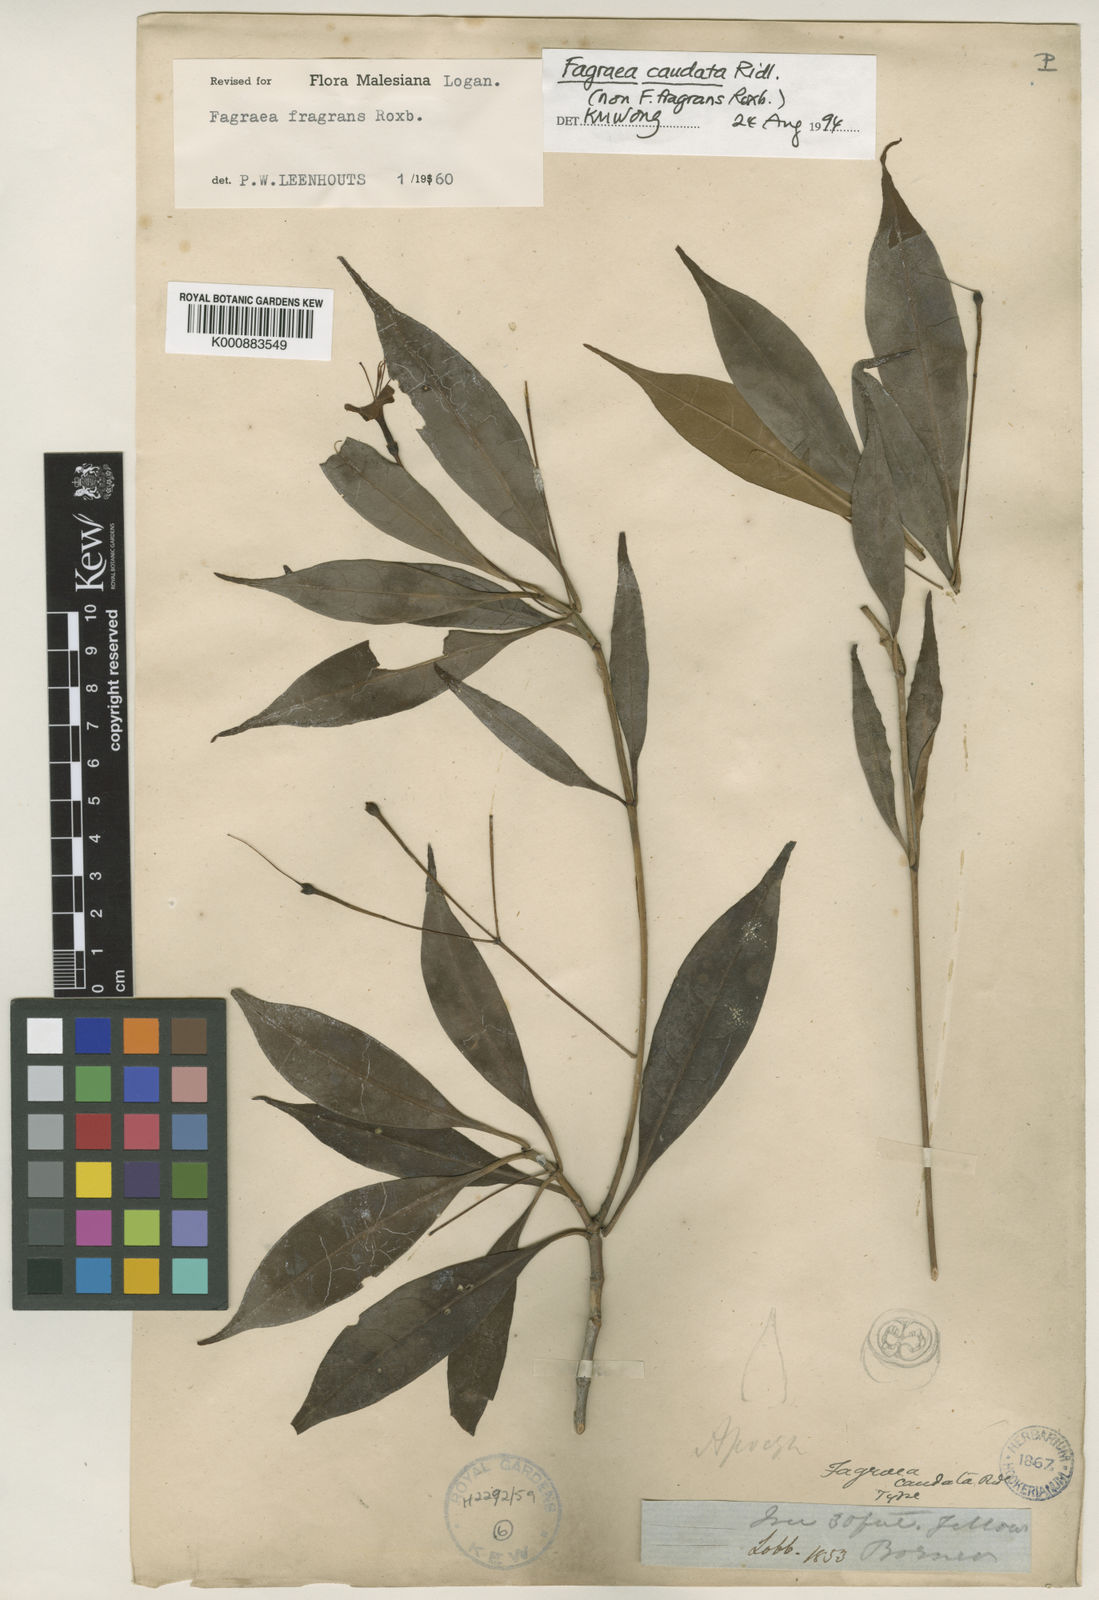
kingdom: Plantae
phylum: Tracheophyta
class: Magnoliopsida
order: Gentianales
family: Gentianaceae
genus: Cyrtophyllum
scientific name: Cyrtophyllum caudatum
